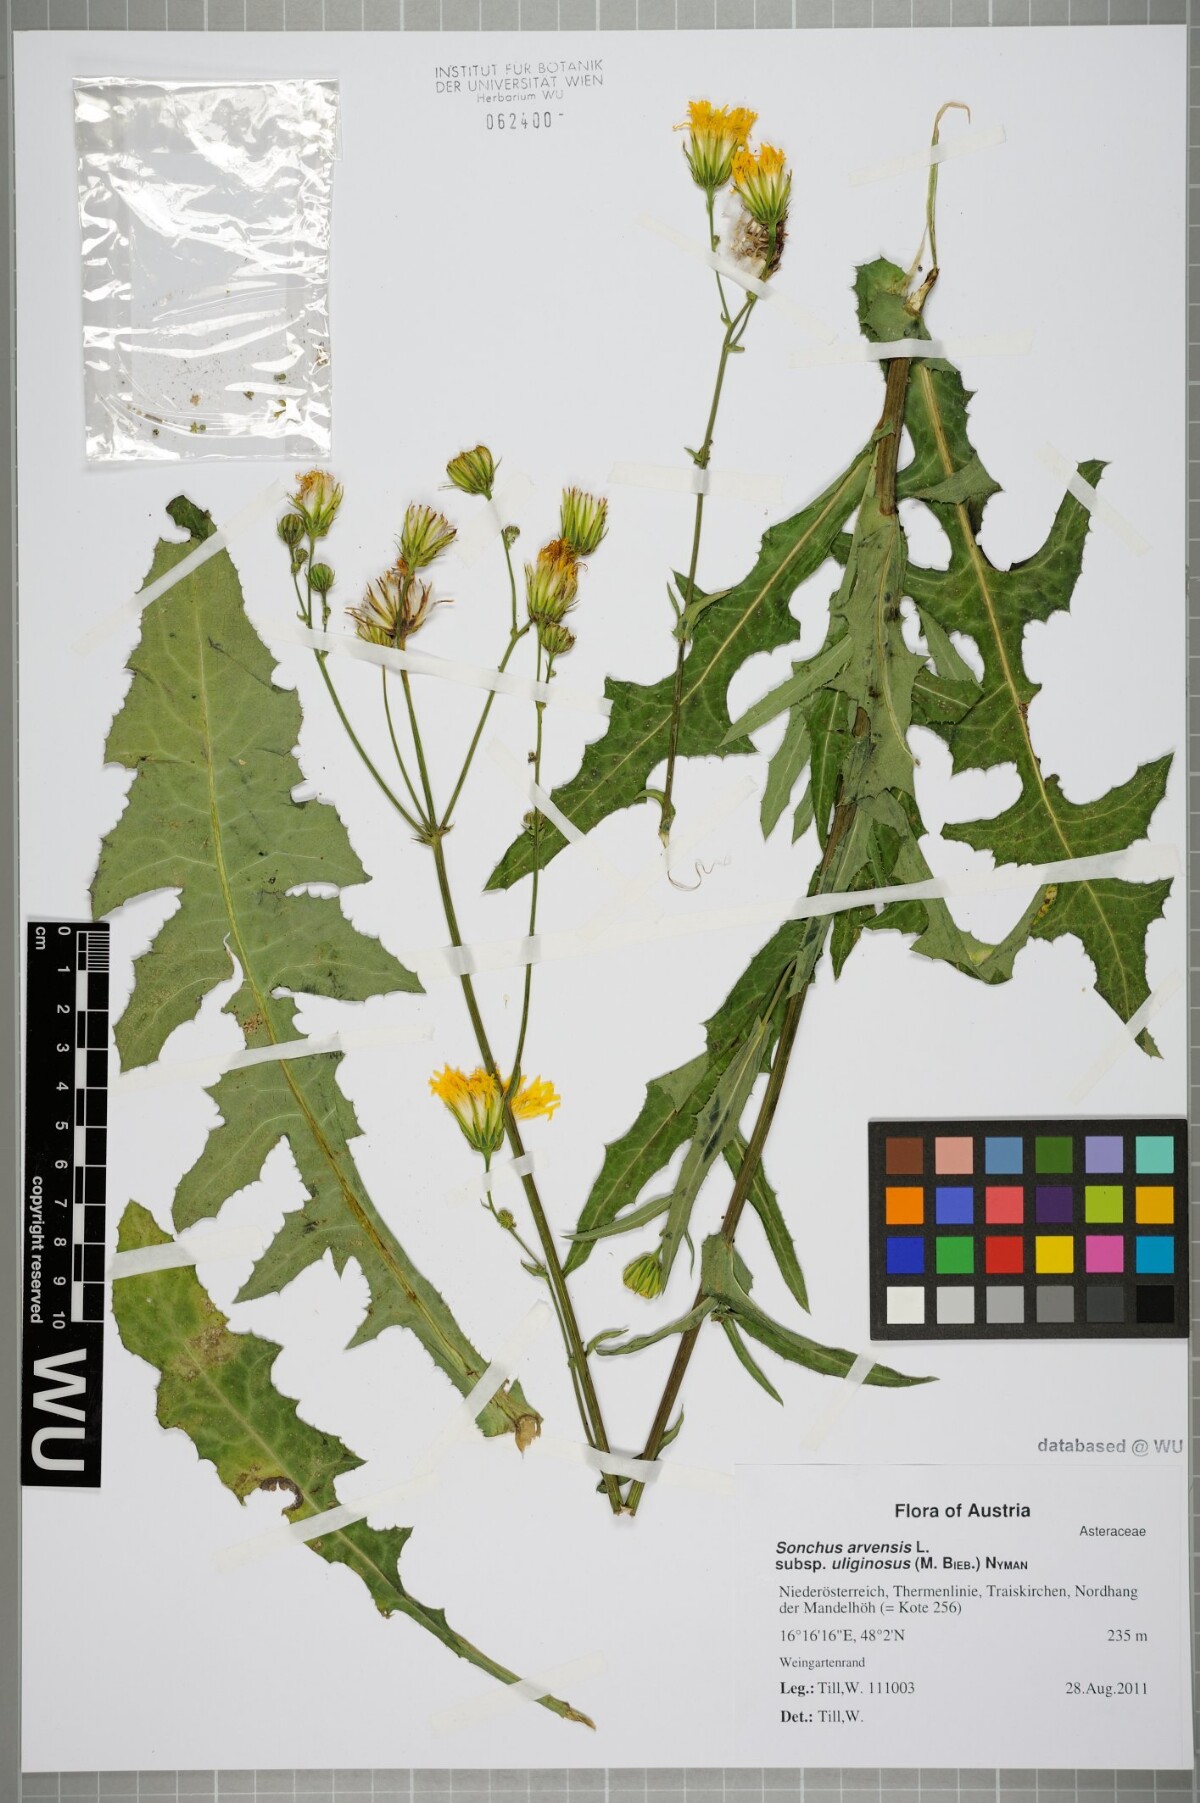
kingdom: Plantae
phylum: Tracheophyta
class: Magnoliopsida
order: Asterales
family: Asteraceae
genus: Sonchus
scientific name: Sonchus arvensis
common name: Perennial sow-thistle
